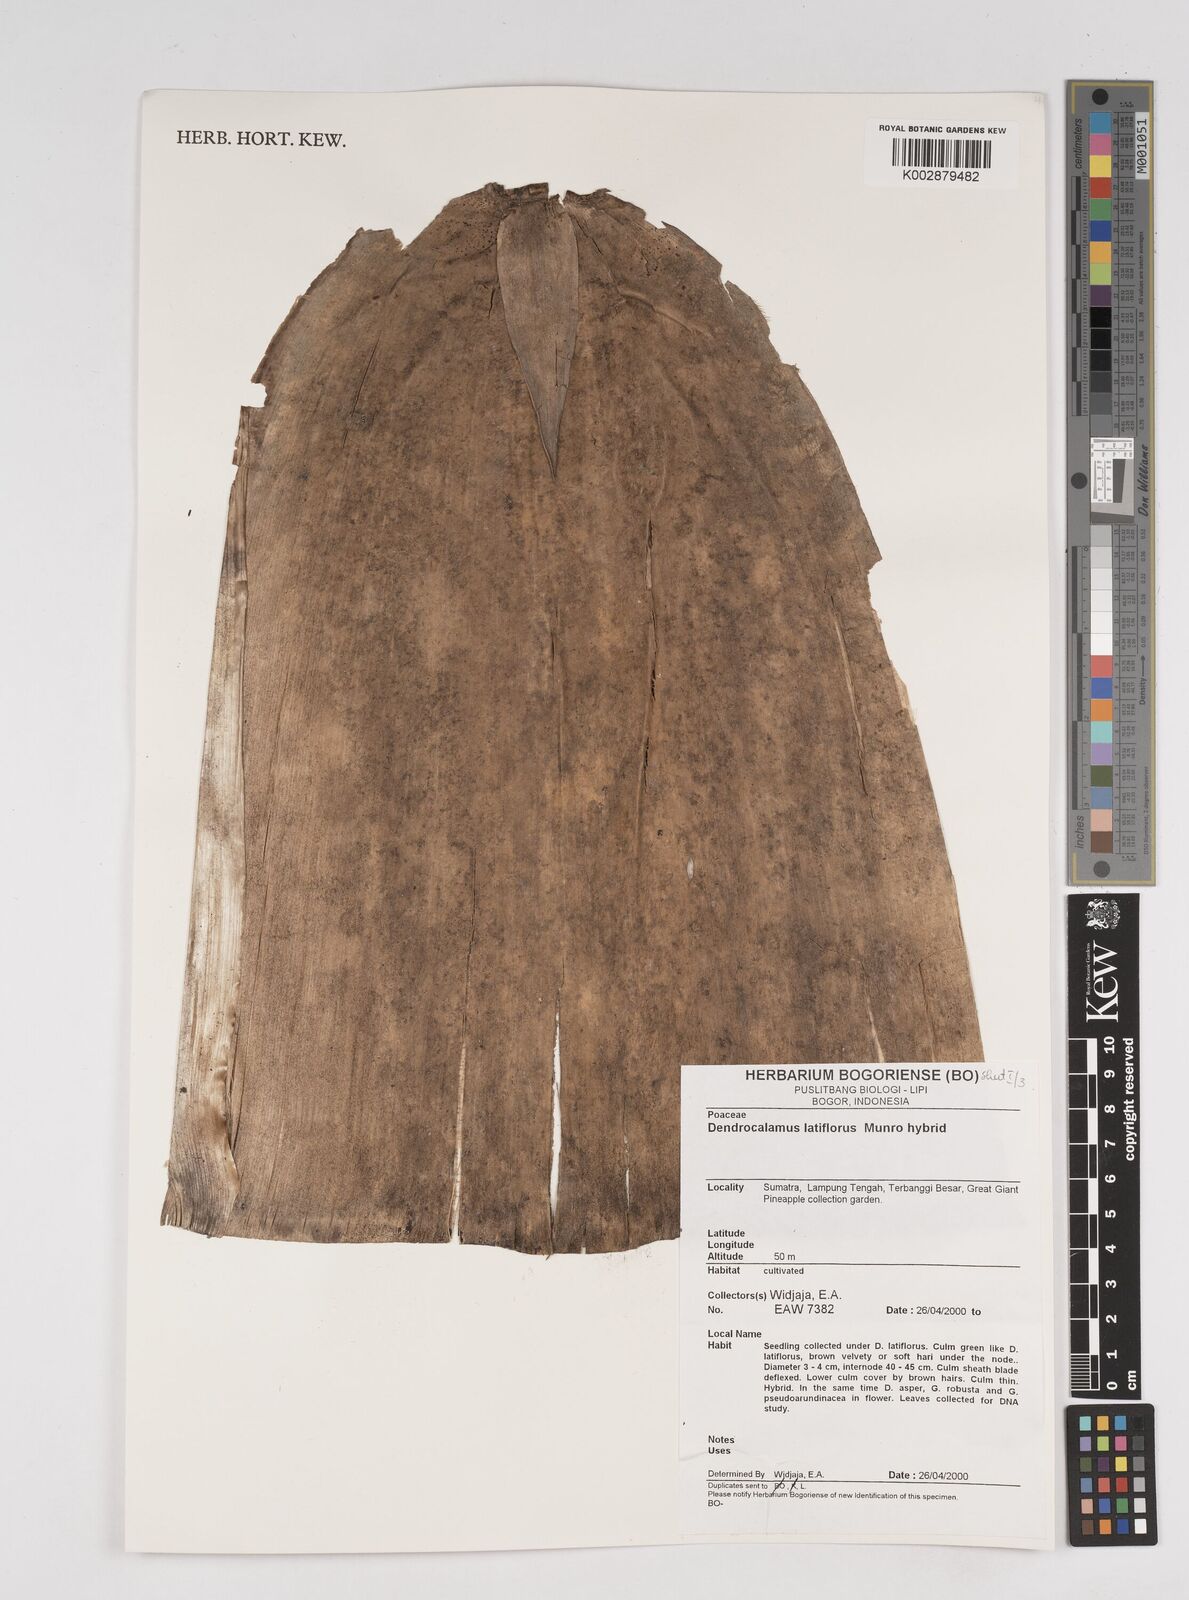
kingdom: Plantae
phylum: Tracheophyta
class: Liliopsida
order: Poales
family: Poaceae
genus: Dendrocalamus
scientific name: Dendrocalamus latiflorus
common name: Giant bamboo
